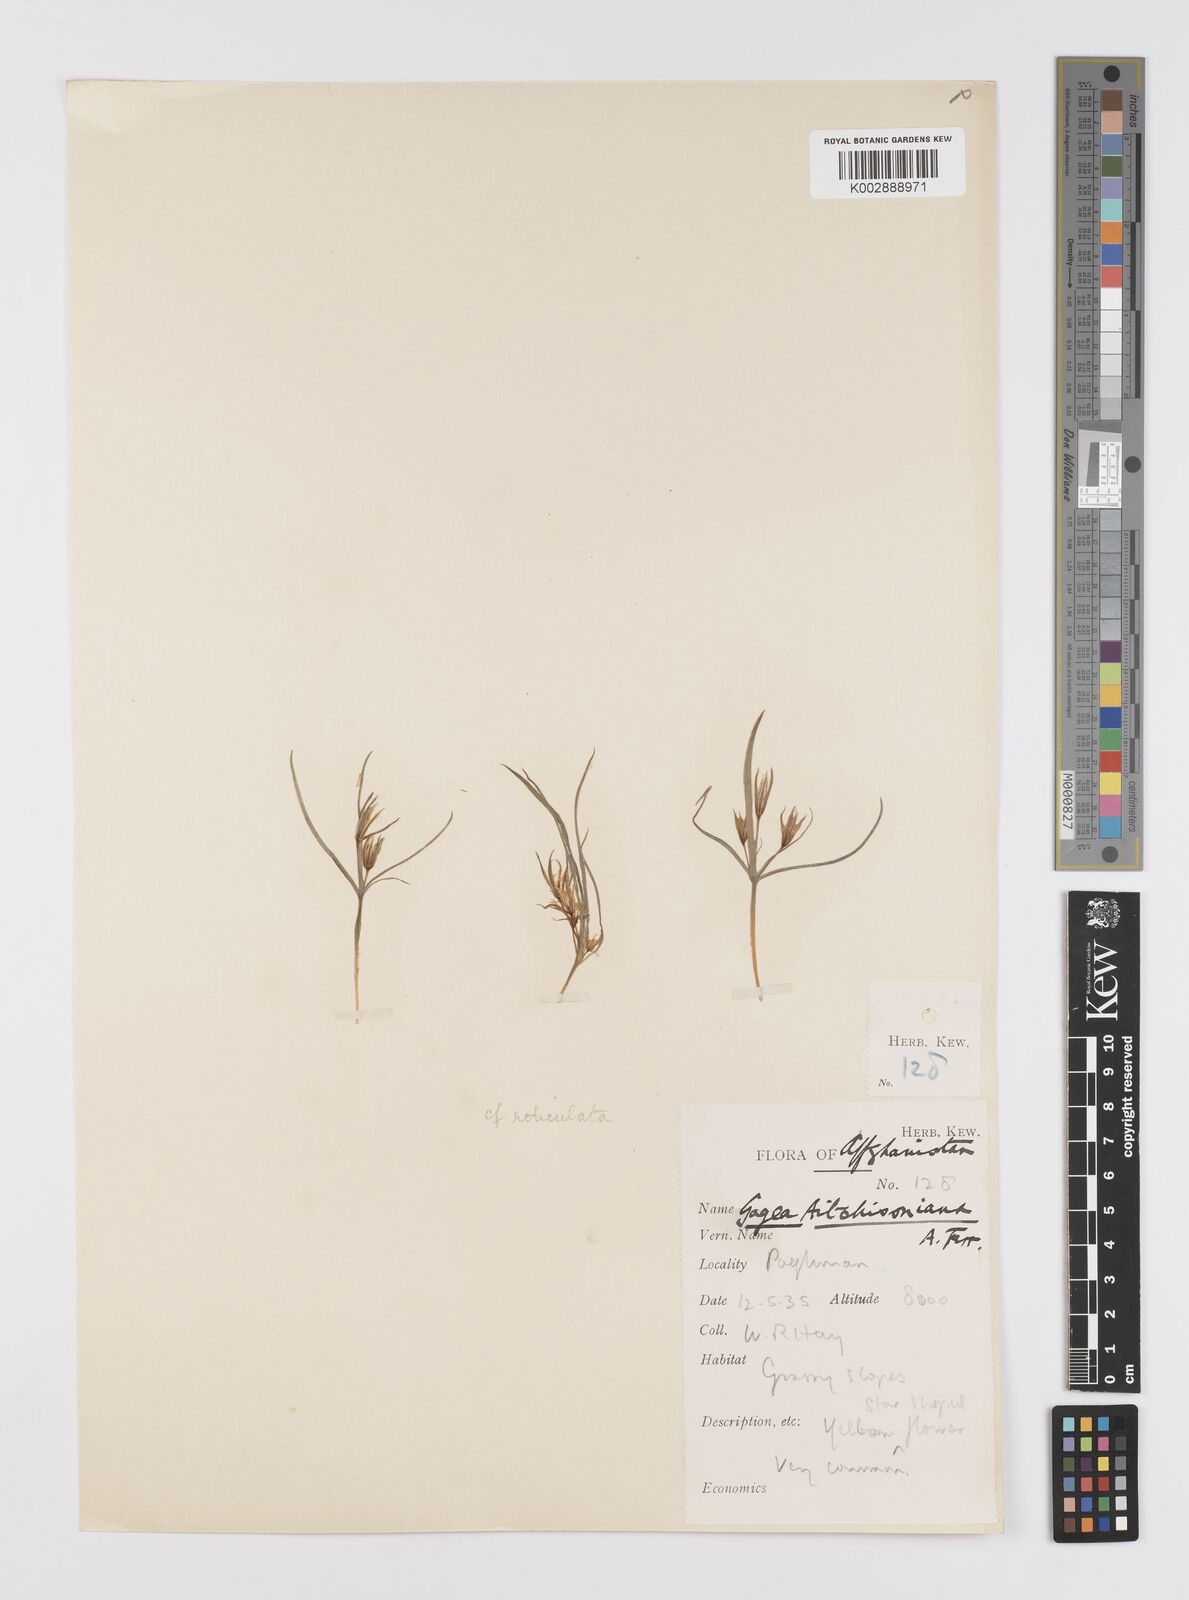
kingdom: Plantae
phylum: Tracheophyta
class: Liliopsida
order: Liliales
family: Liliaceae
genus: Gagea
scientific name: Gagea
